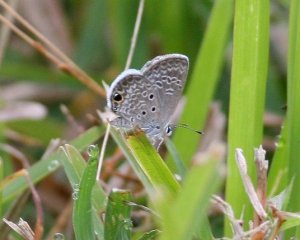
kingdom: Animalia
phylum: Arthropoda
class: Insecta
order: Lepidoptera
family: Lycaenidae
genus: Hemiargus
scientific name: Hemiargus ceraunus
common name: Ceraunus Blue
